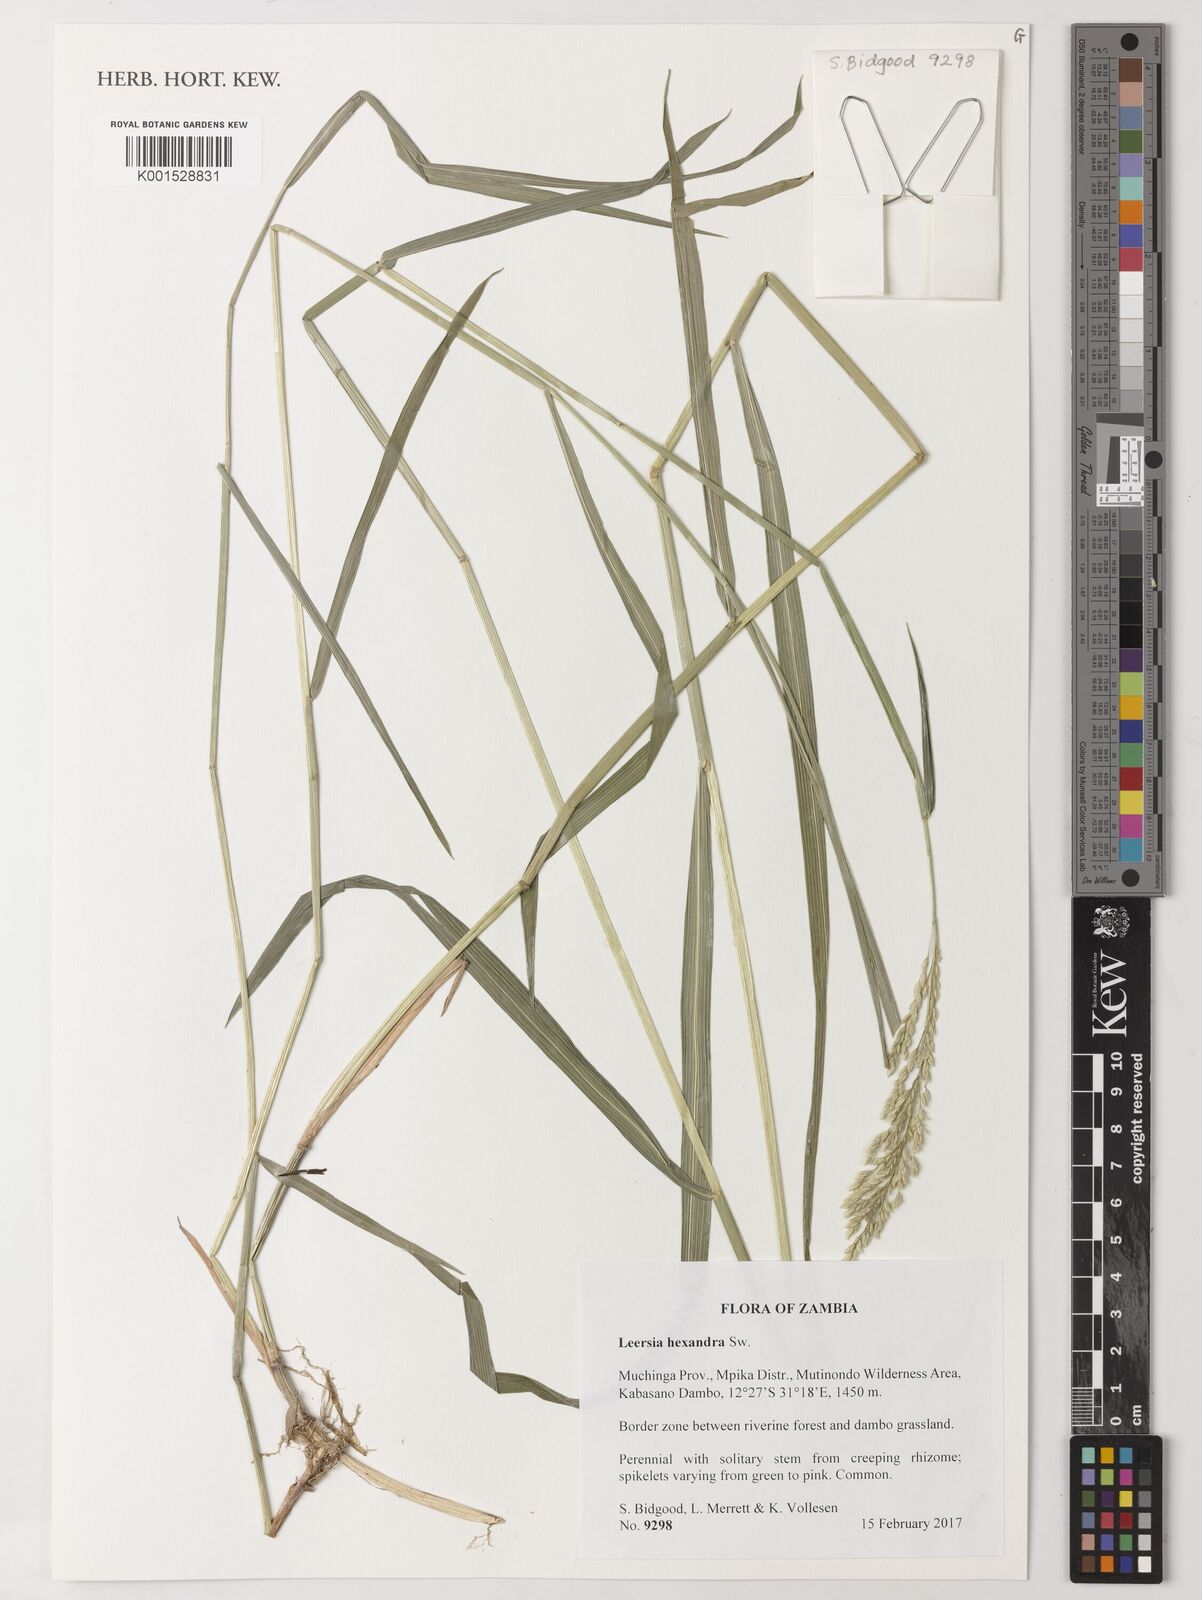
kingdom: Plantae
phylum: Tracheophyta
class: Liliopsida
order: Poales
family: Poaceae
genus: Leersia
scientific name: Leersia hexandra
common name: Southern cut grass
